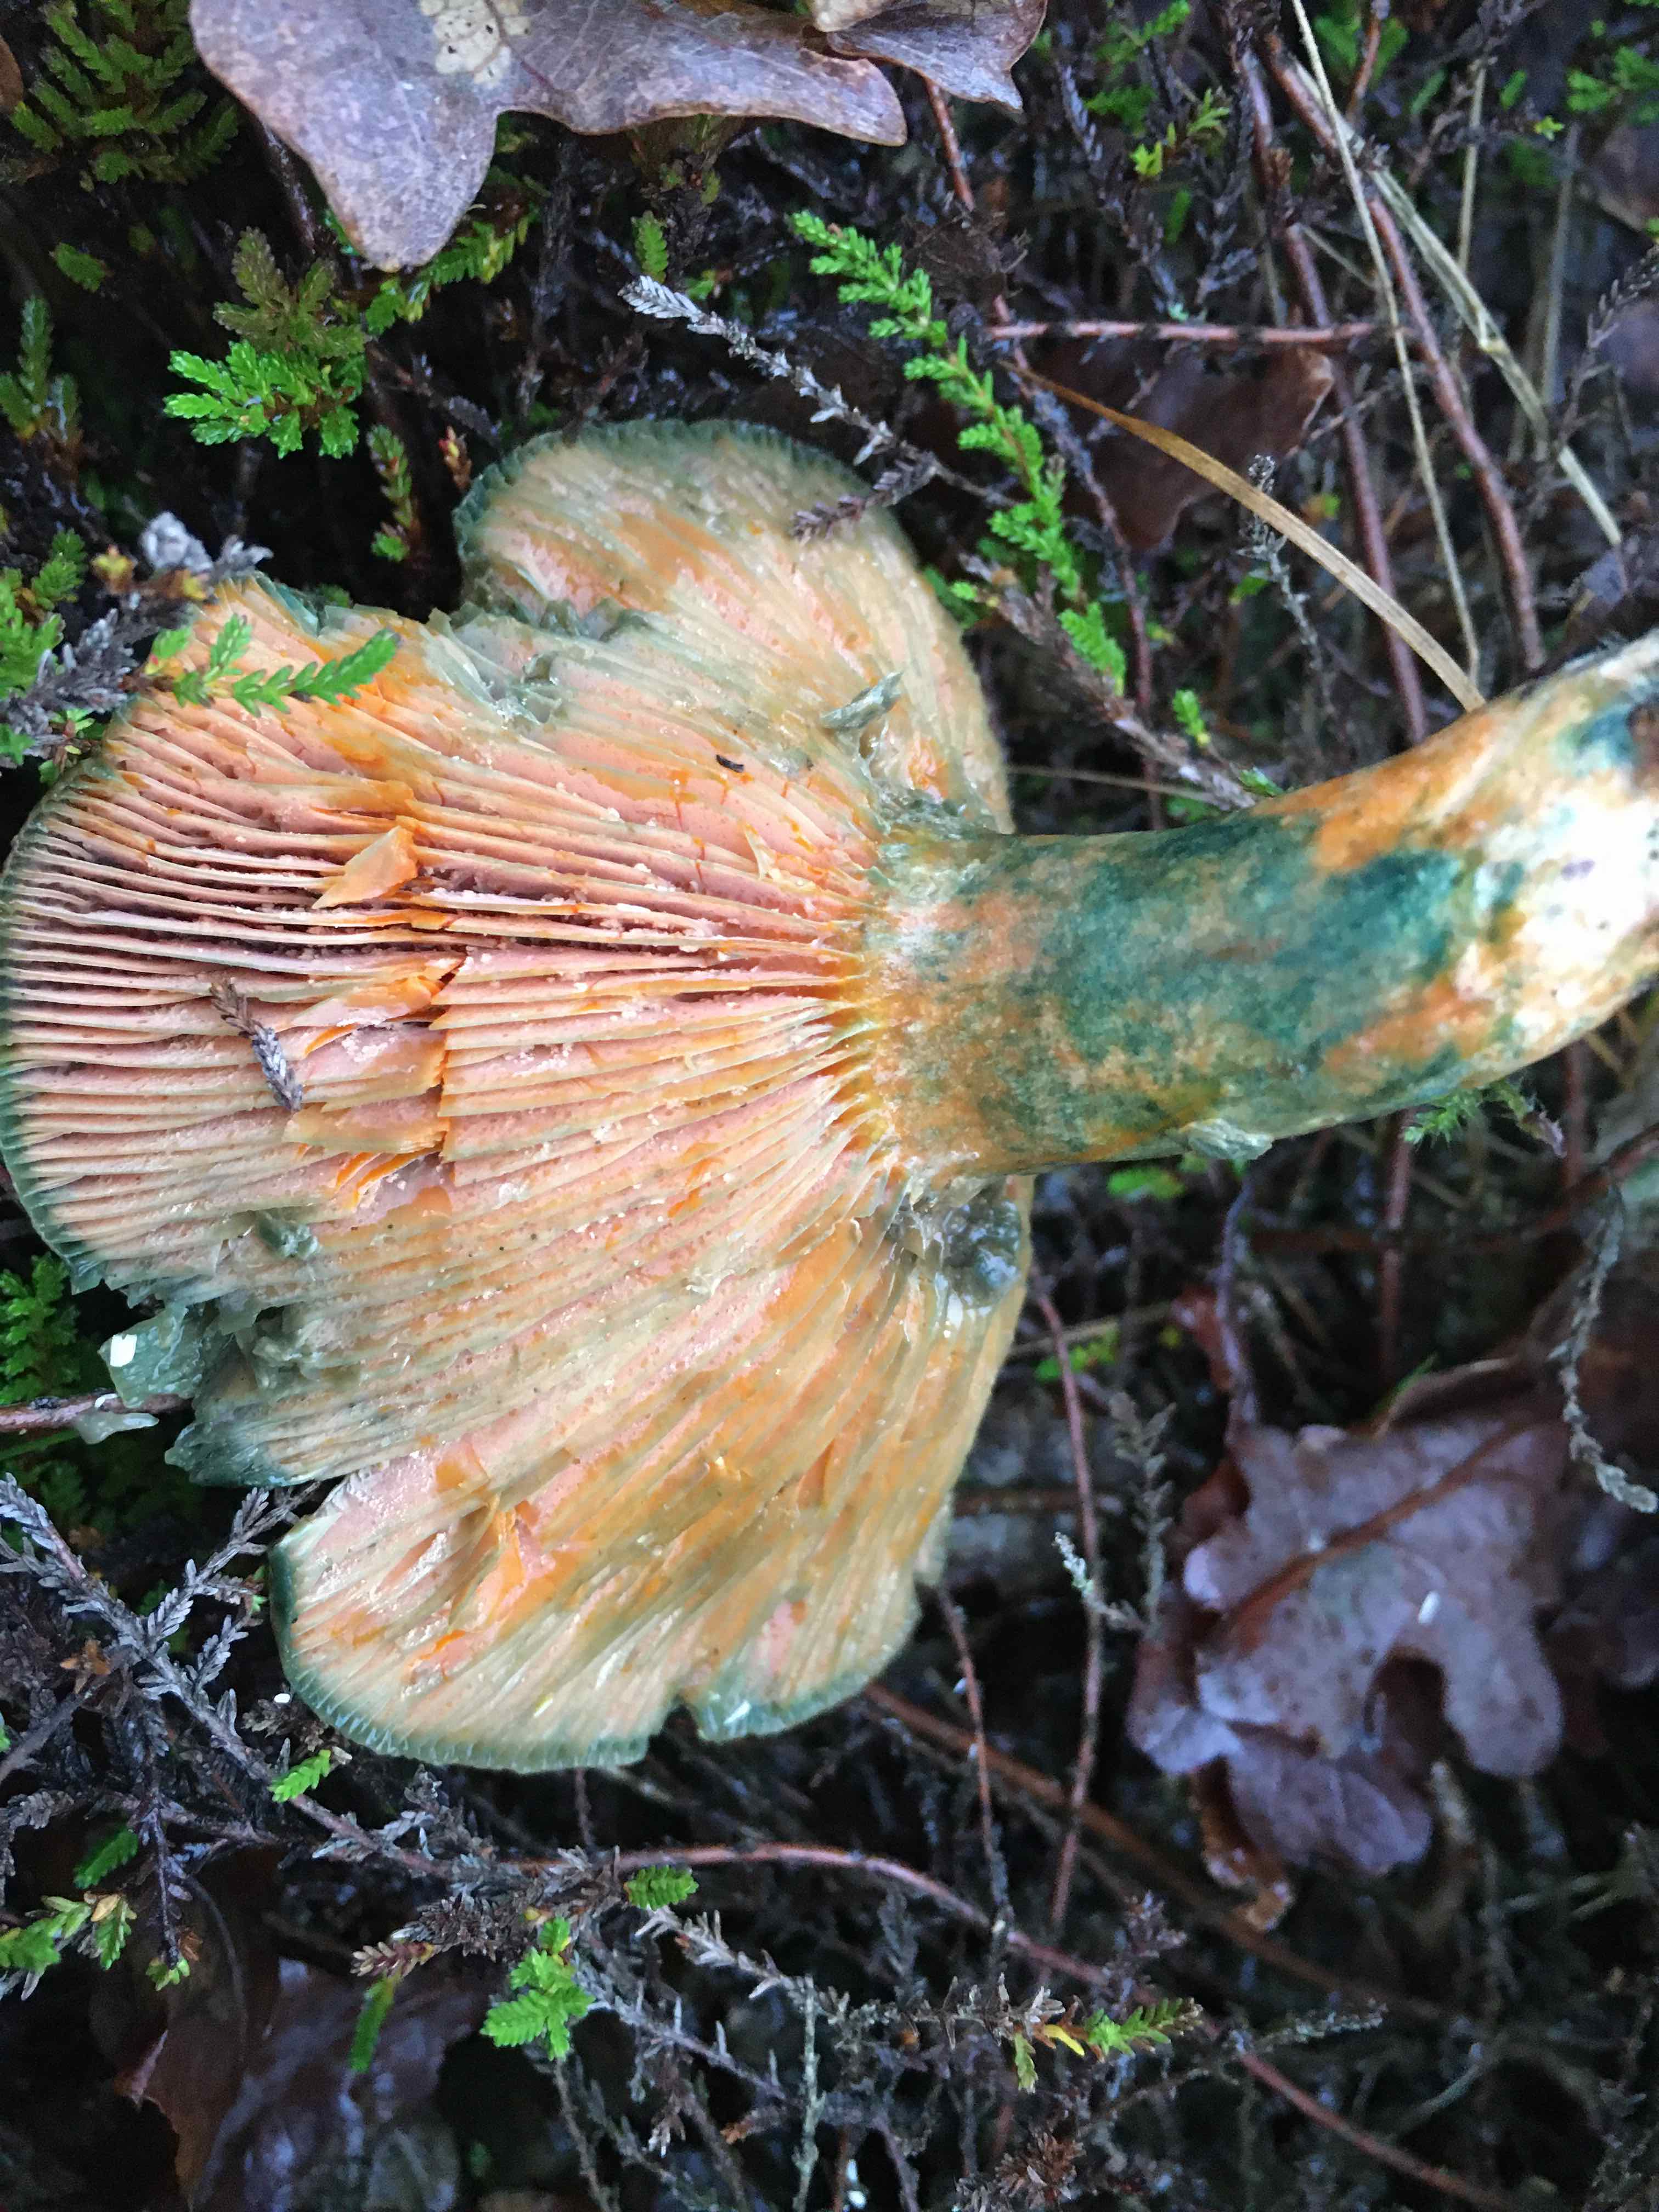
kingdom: Fungi
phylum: Basidiomycota
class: Agaricomycetes
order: Russulales
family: Russulaceae
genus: Lactarius
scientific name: Lactarius deterrimus
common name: gran-mælkehat
